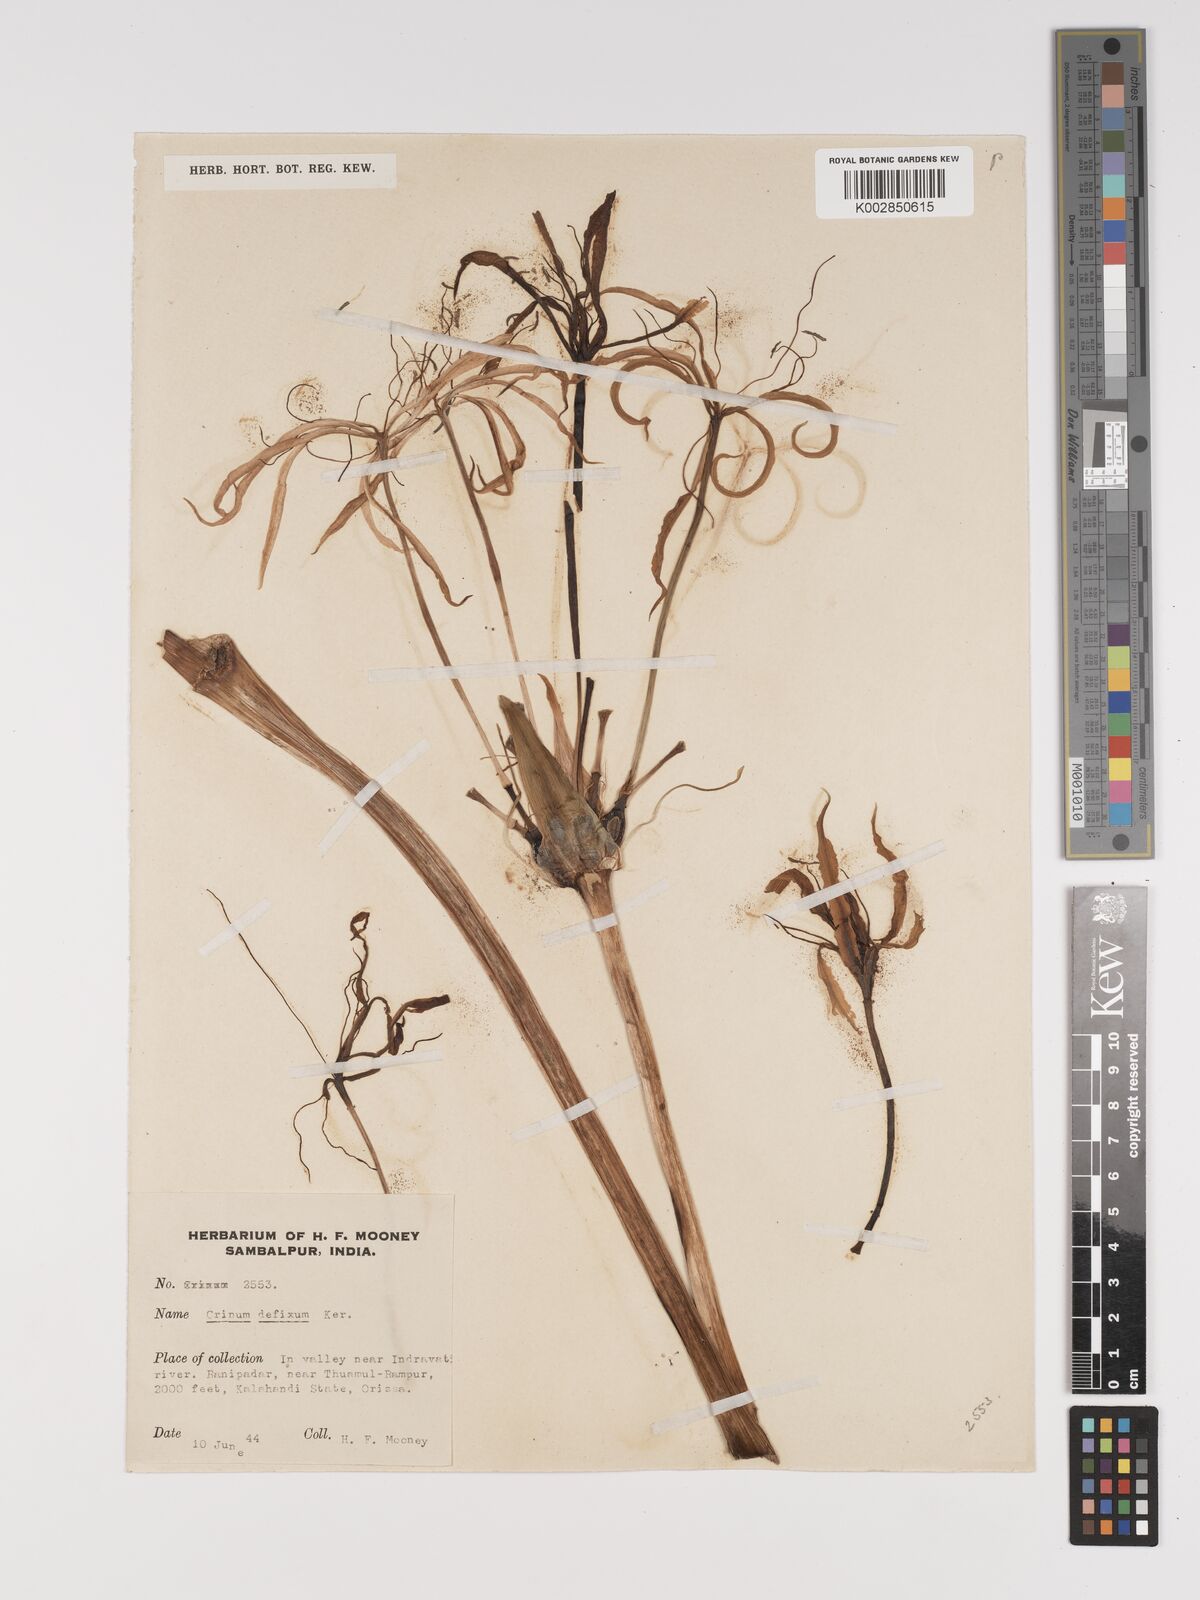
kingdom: Plantae
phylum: Tracheophyta
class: Liliopsida
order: Asparagales
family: Amaryllidaceae
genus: Crinum
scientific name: Crinum defixum
